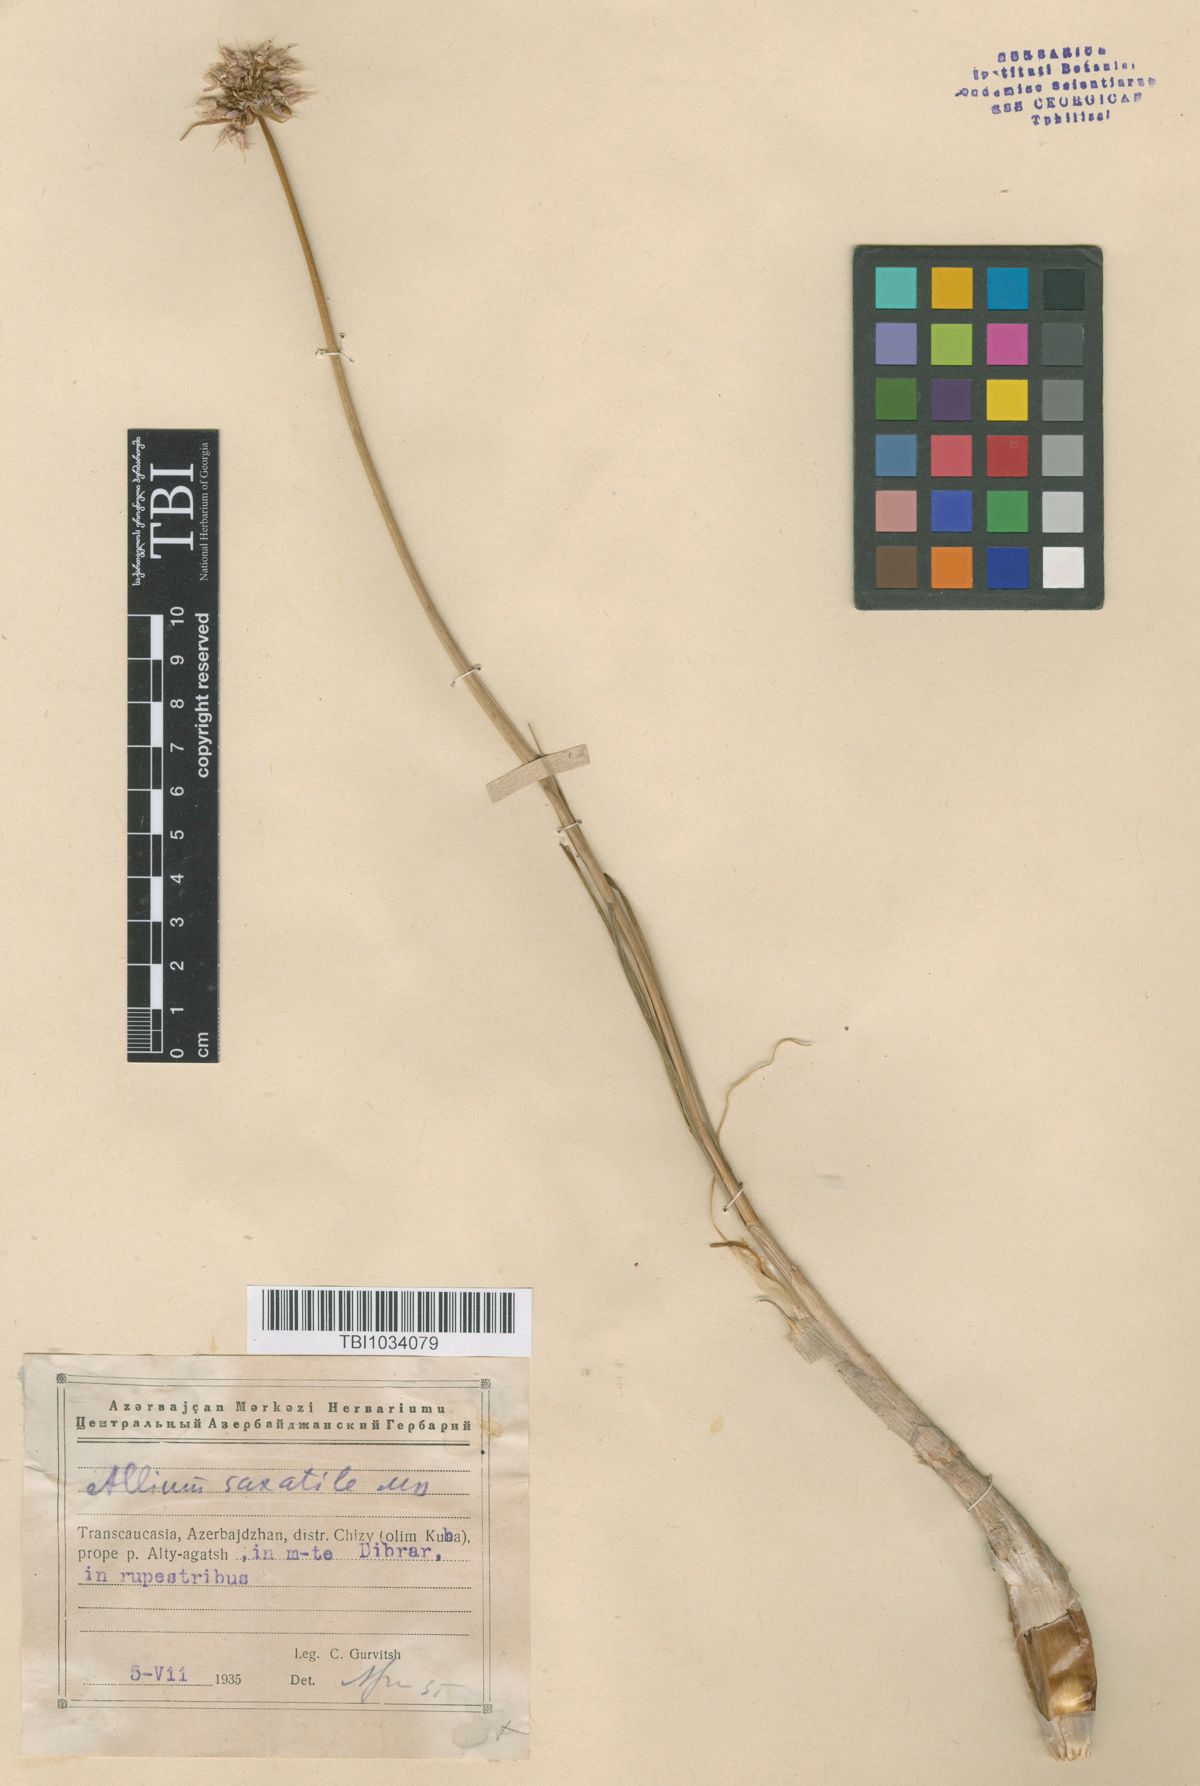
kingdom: Plantae
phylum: Tracheophyta
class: Liliopsida
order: Asparagales
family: Amaryllidaceae
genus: Allium
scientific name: Allium saxatile
